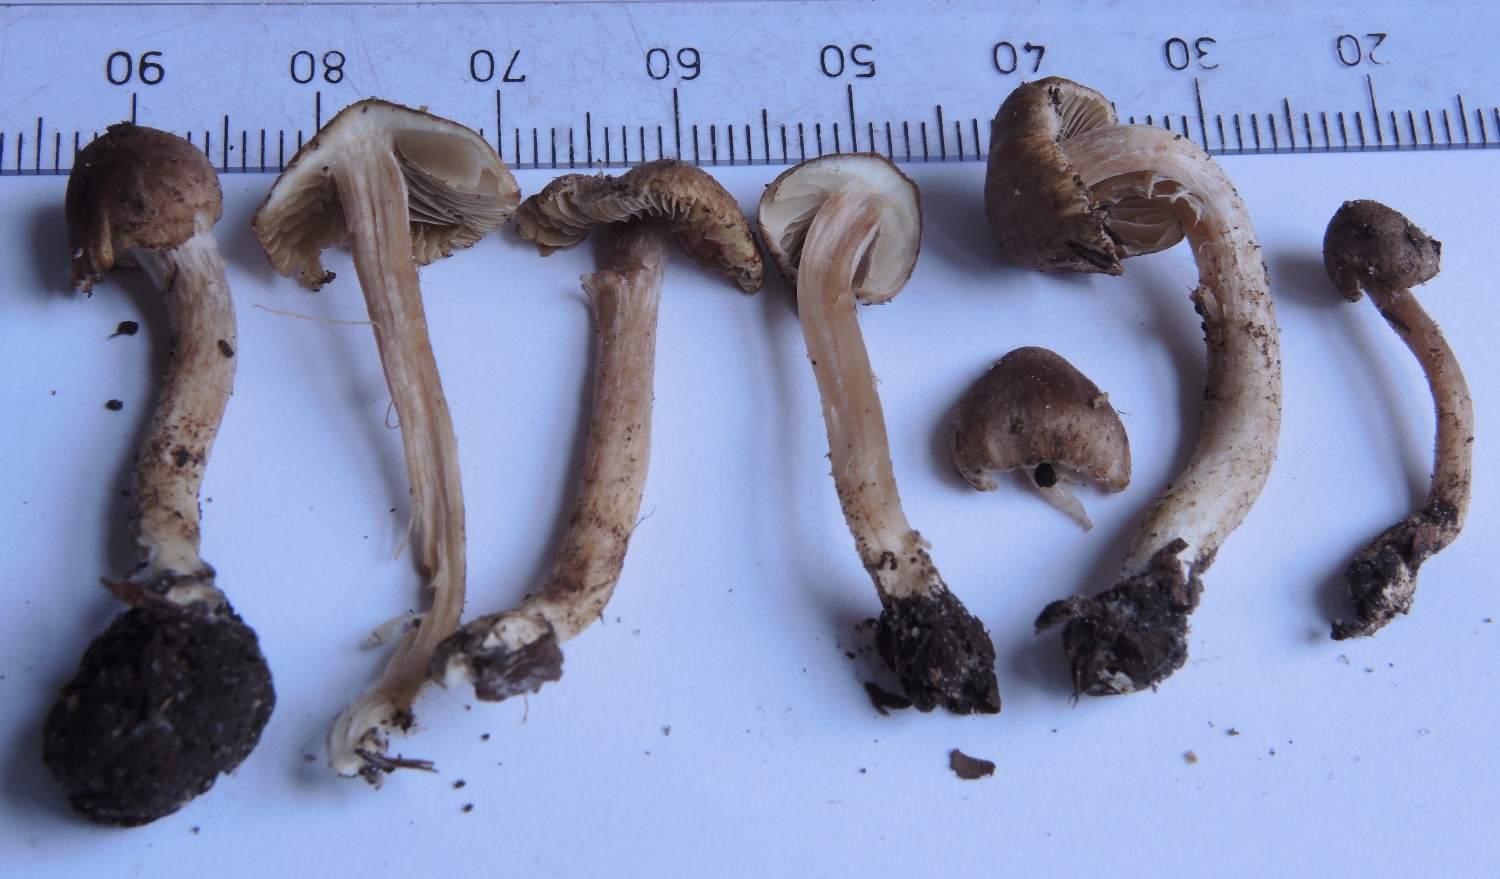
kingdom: Fungi
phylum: Basidiomycota
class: Agaricomycetes
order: Agaricales
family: Inocybaceae
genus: Inocybe
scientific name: Inocybe pseudorubens
